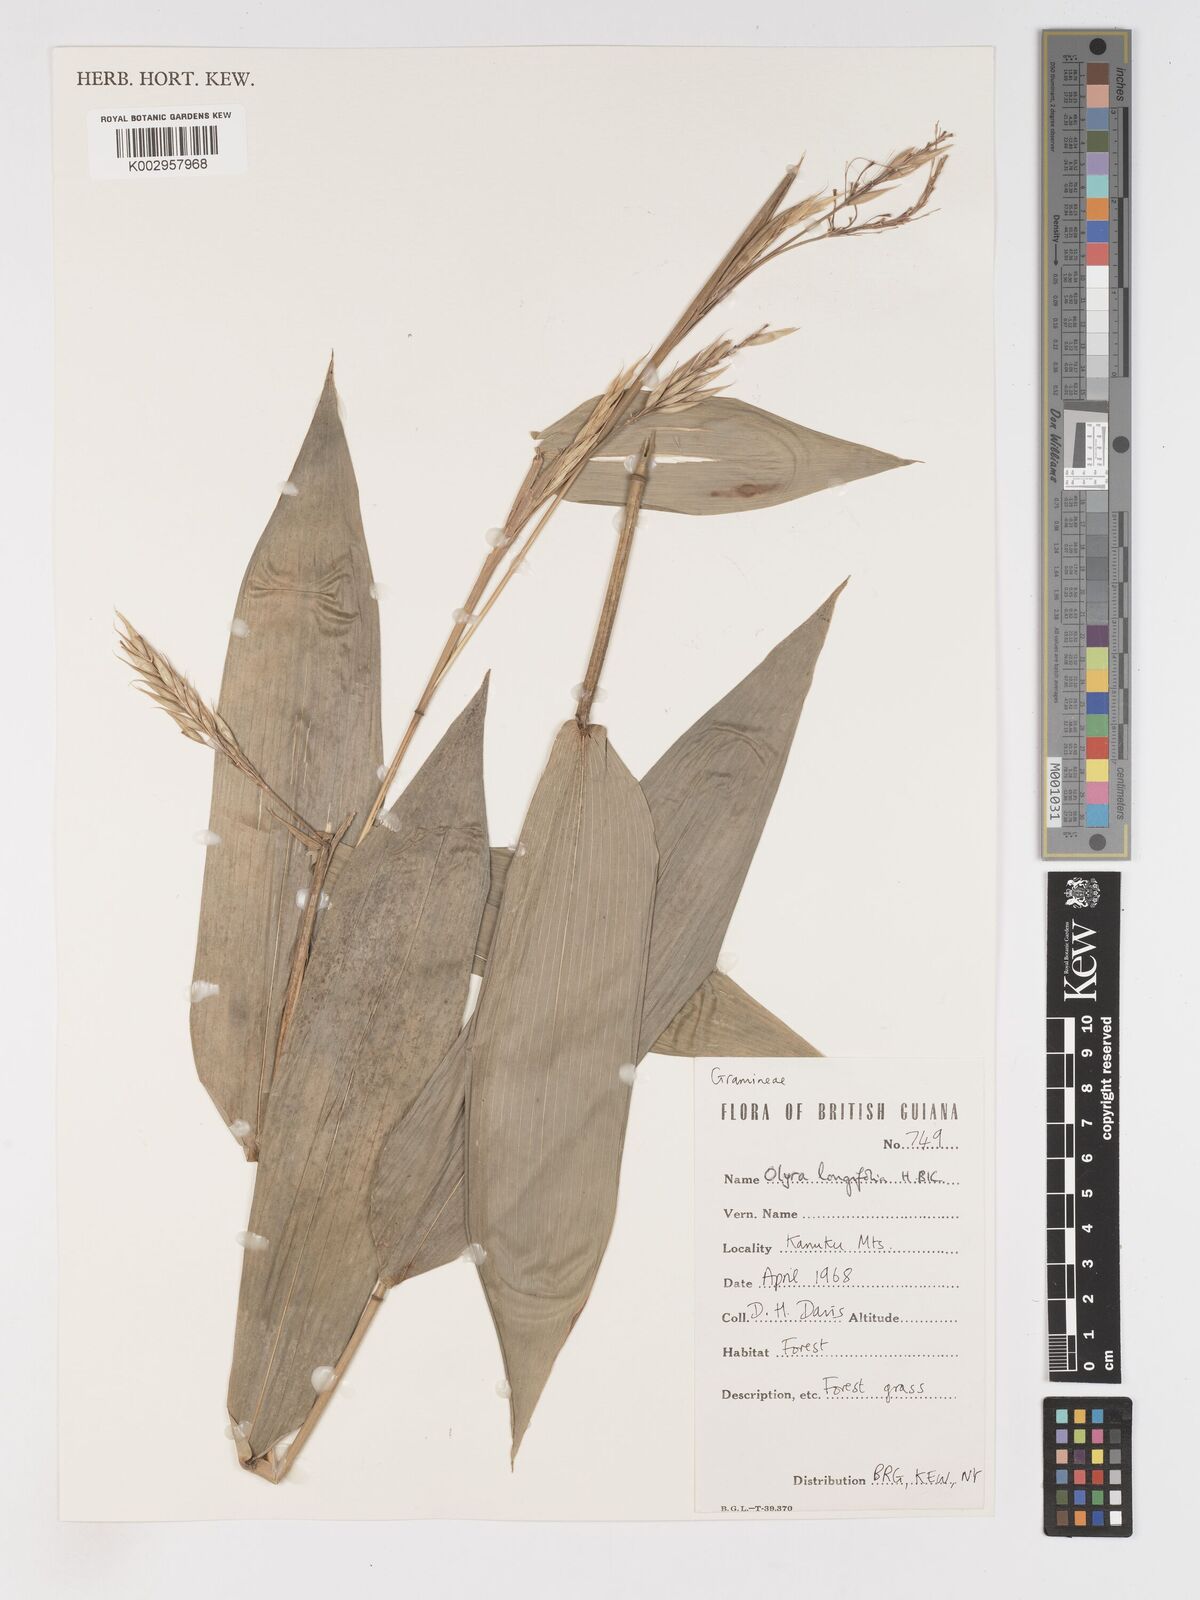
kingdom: Plantae
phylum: Tracheophyta
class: Liliopsida
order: Poales
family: Poaceae
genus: Olyra
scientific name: Olyra longifolia
